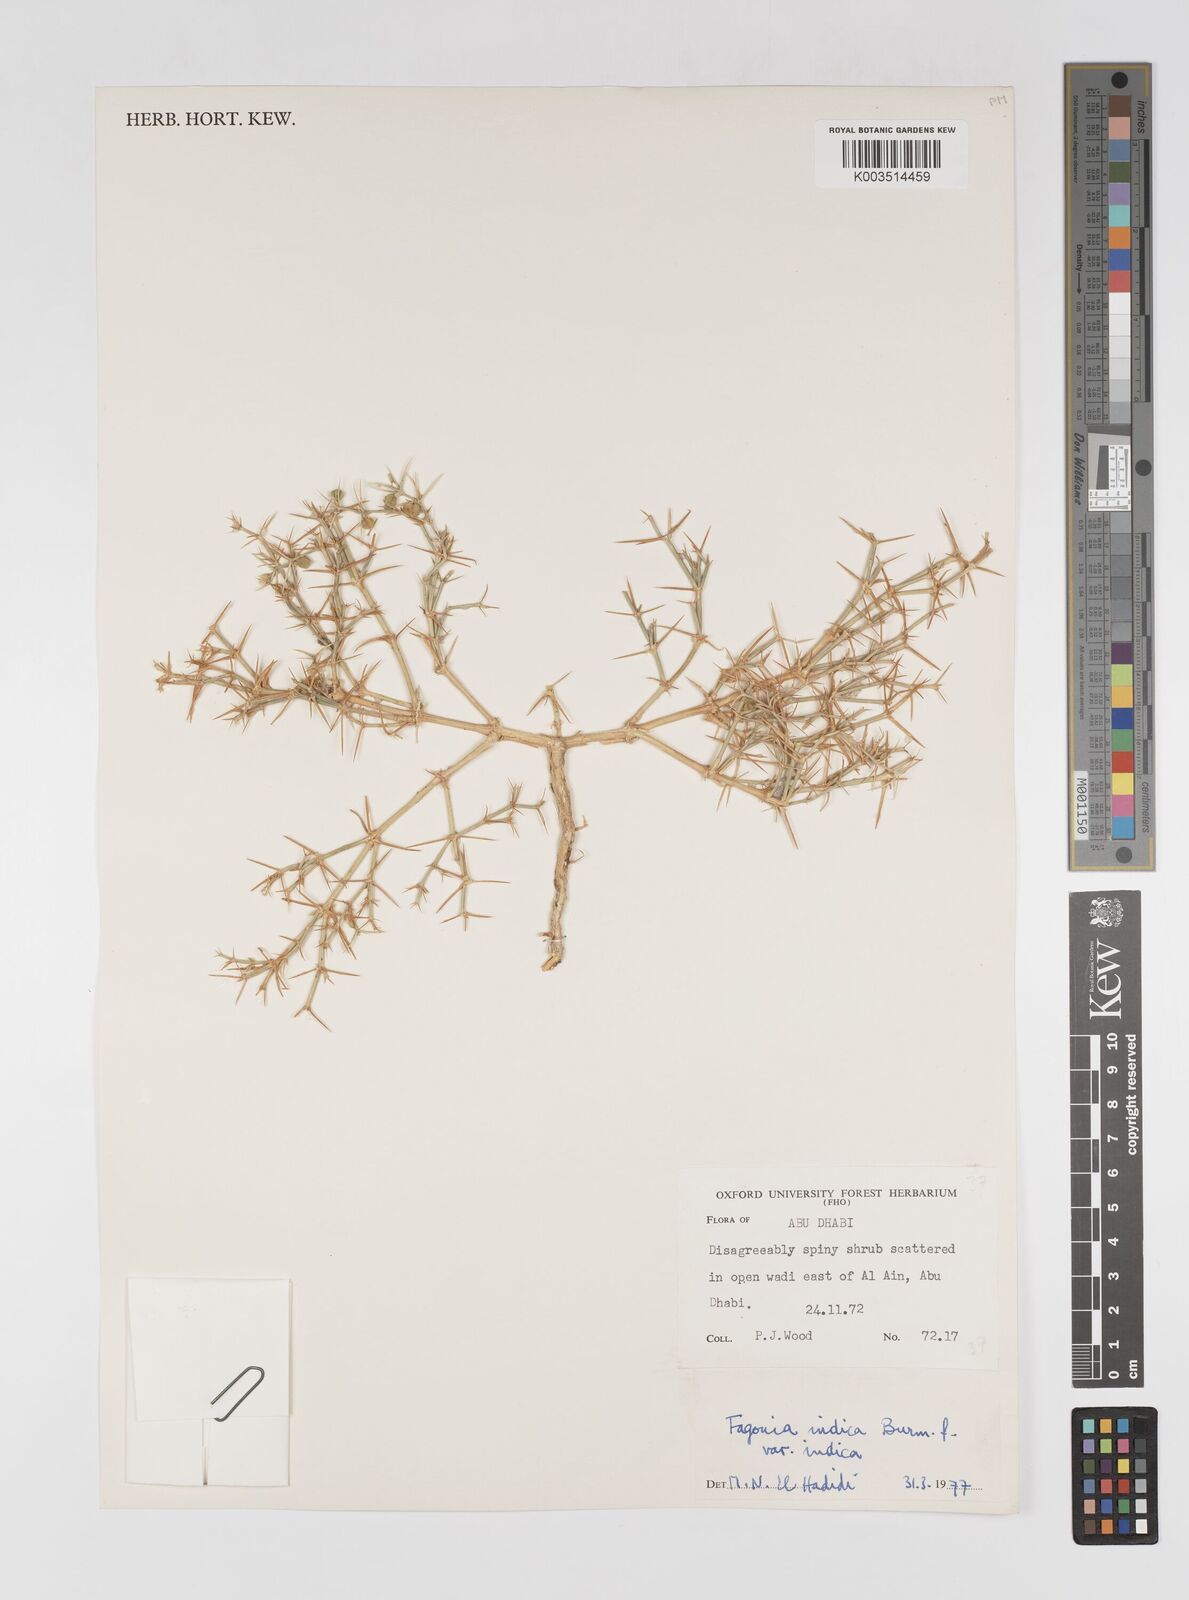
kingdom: Plantae
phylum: Tracheophyta
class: Magnoliopsida
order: Zygophyllales
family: Zygophyllaceae
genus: Fagonia
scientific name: Fagonia indica
